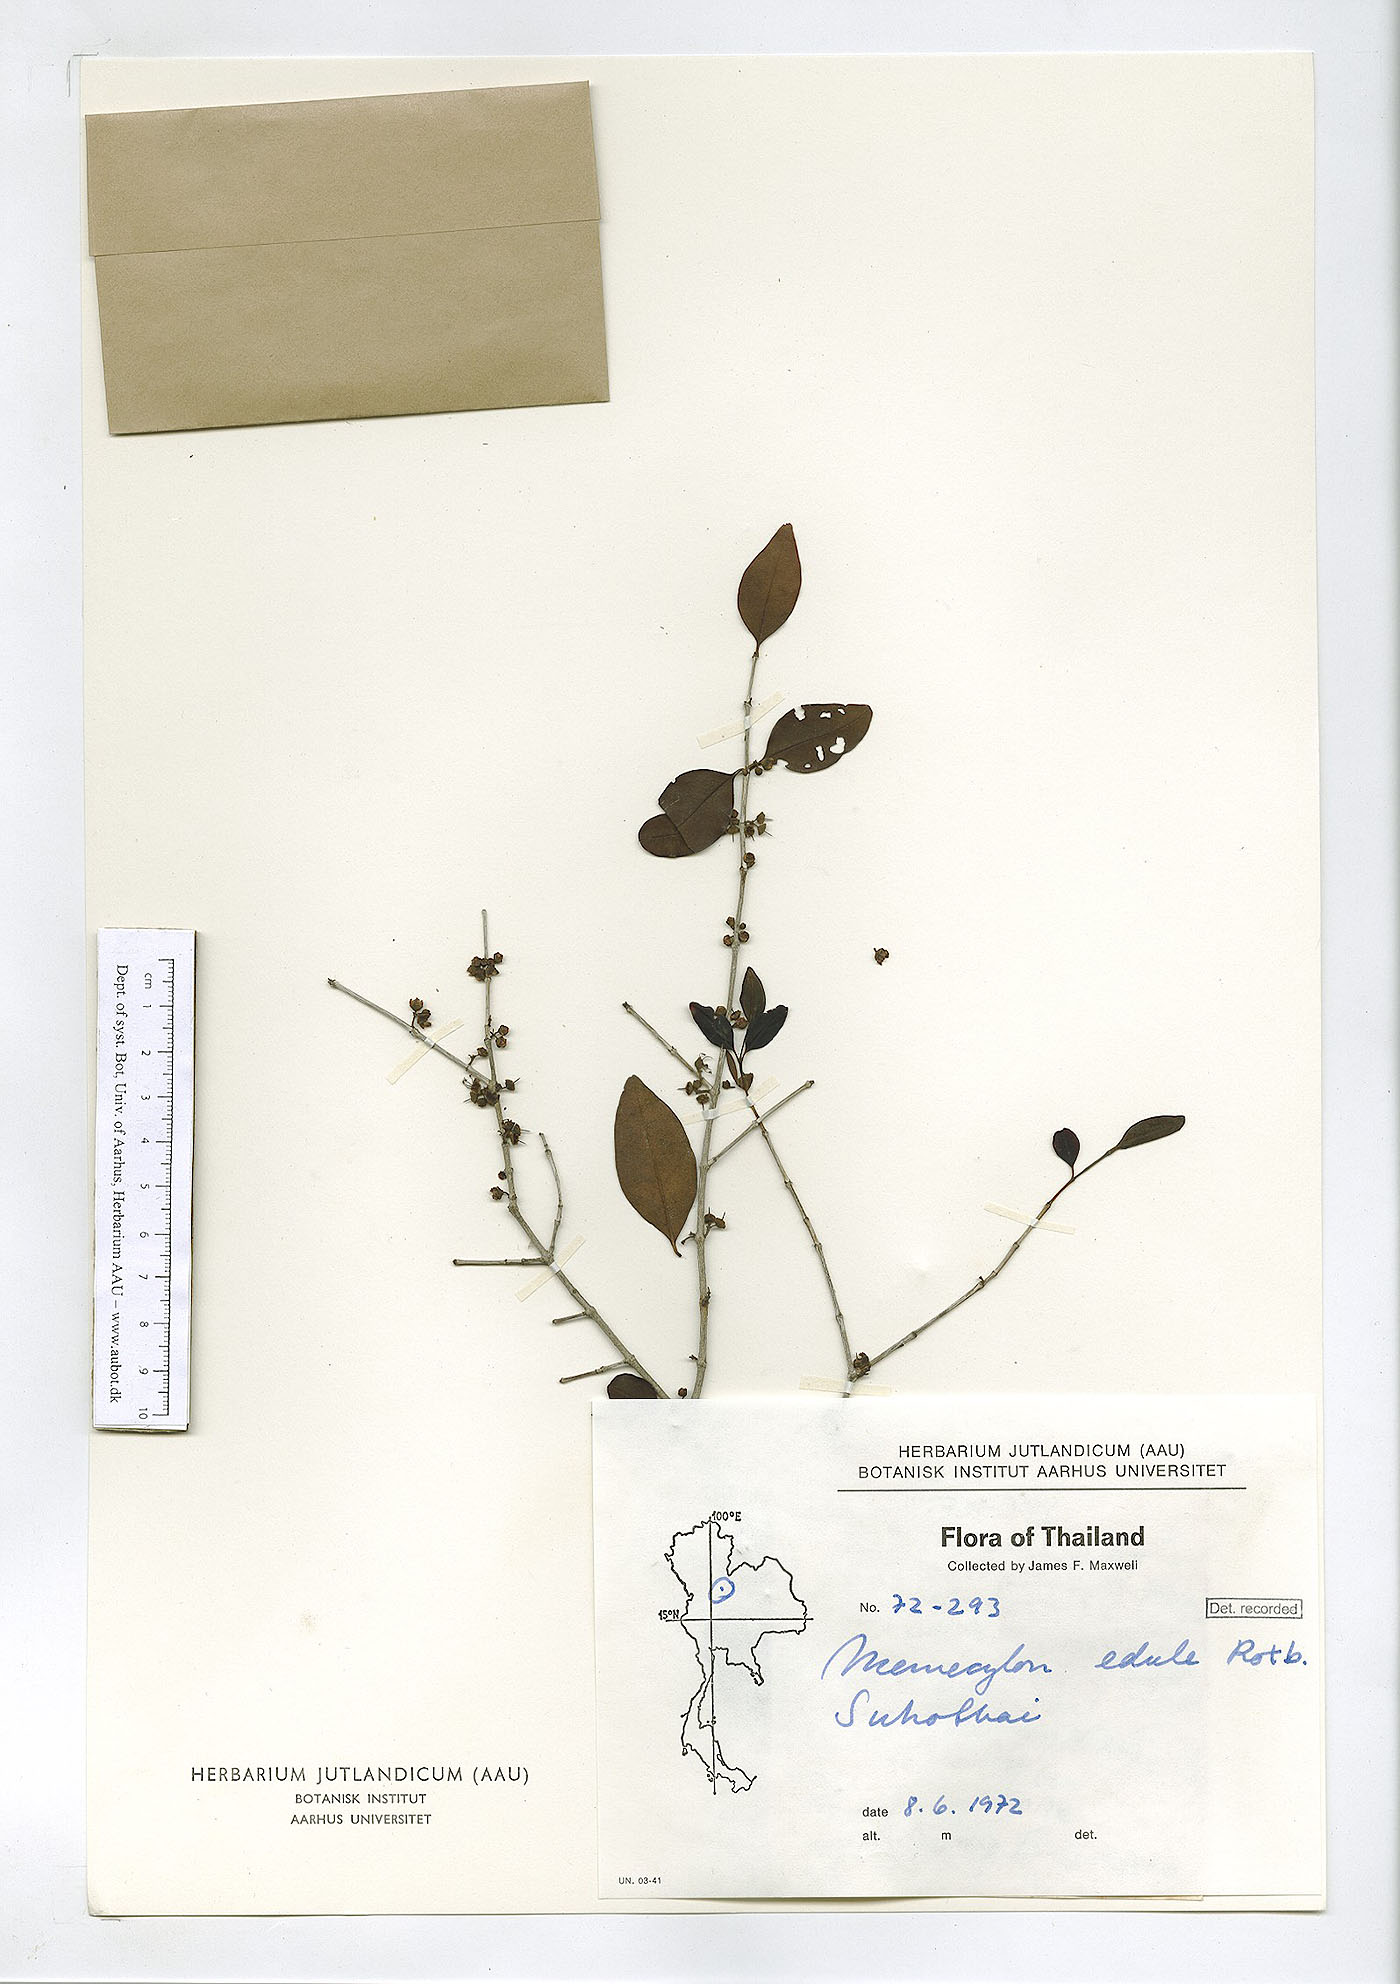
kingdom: Plantae
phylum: Tracheophyta
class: Magnoliopsida
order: Myrtales
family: Melastomataceae
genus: Memecylon
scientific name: Memecylon scutellatum
